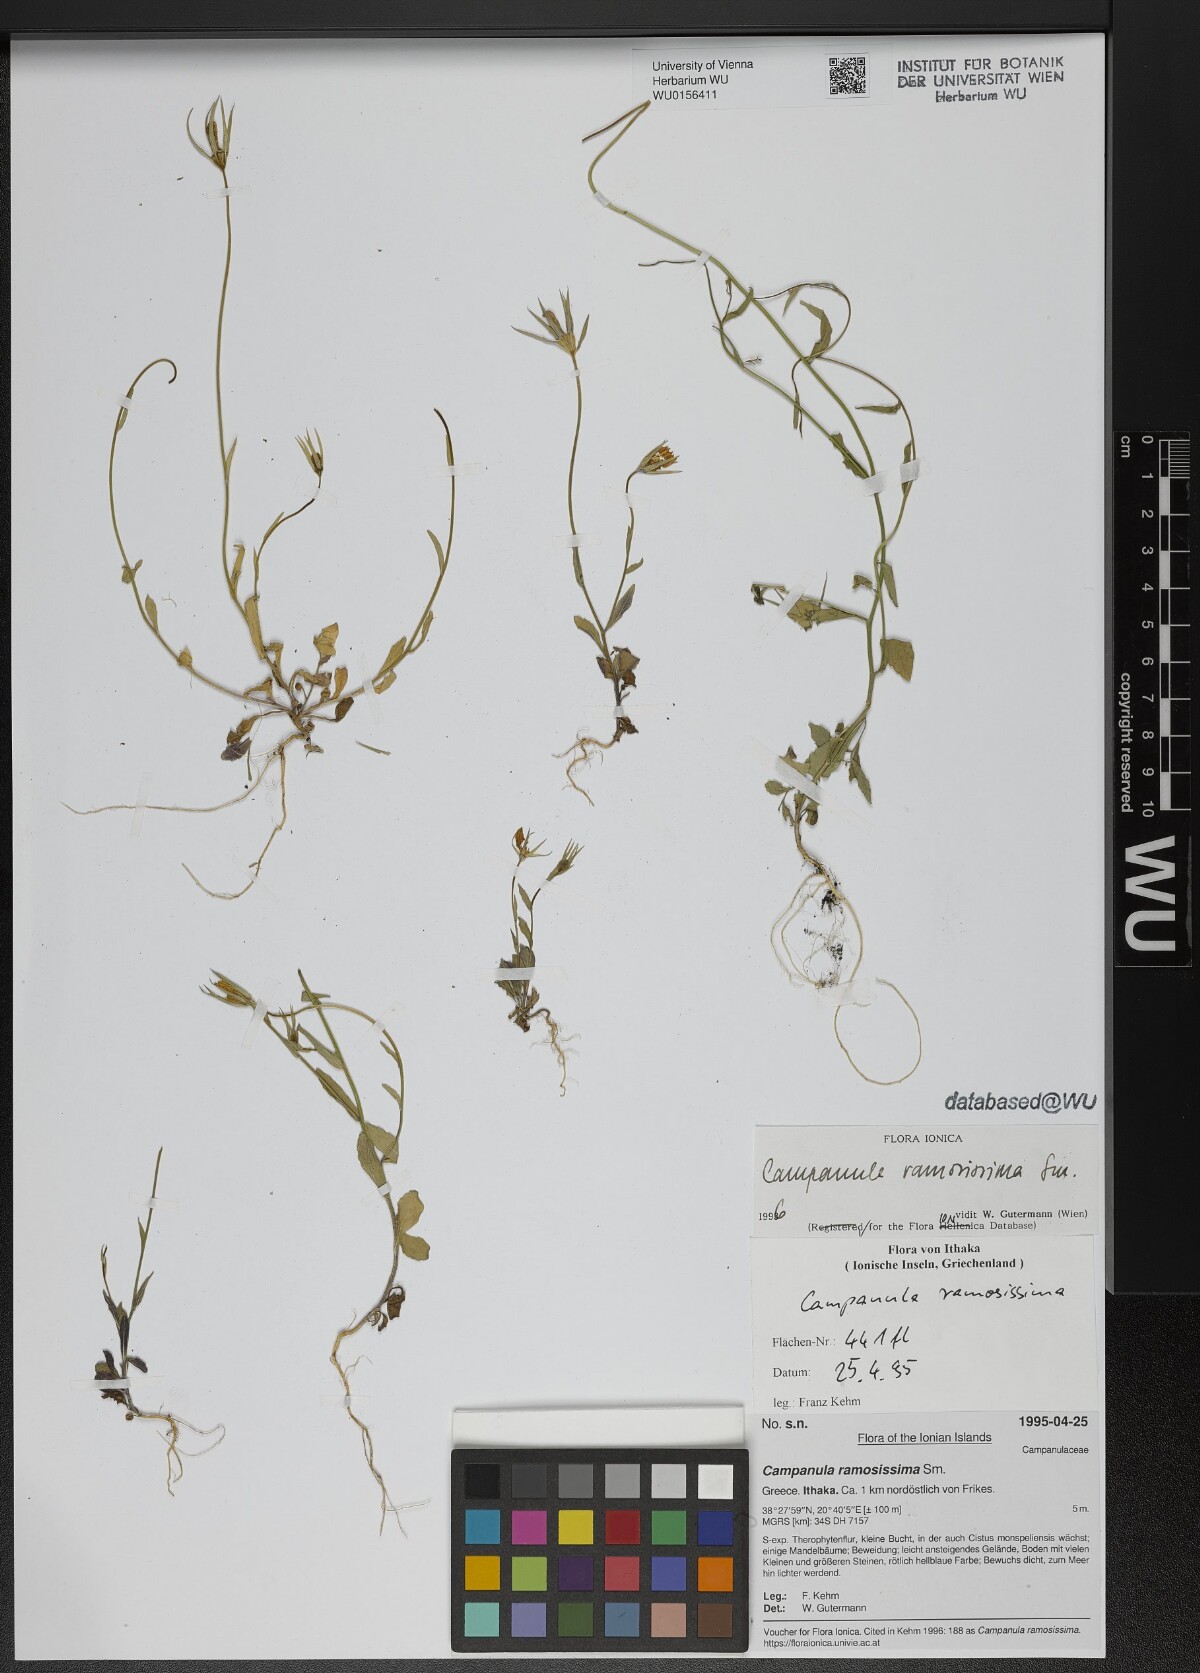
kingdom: Plantae
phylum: Tracheophyta
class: Magnoliopsida
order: Asterales
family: Campanulaceae
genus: Campanula
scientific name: Campanula ramosissima
